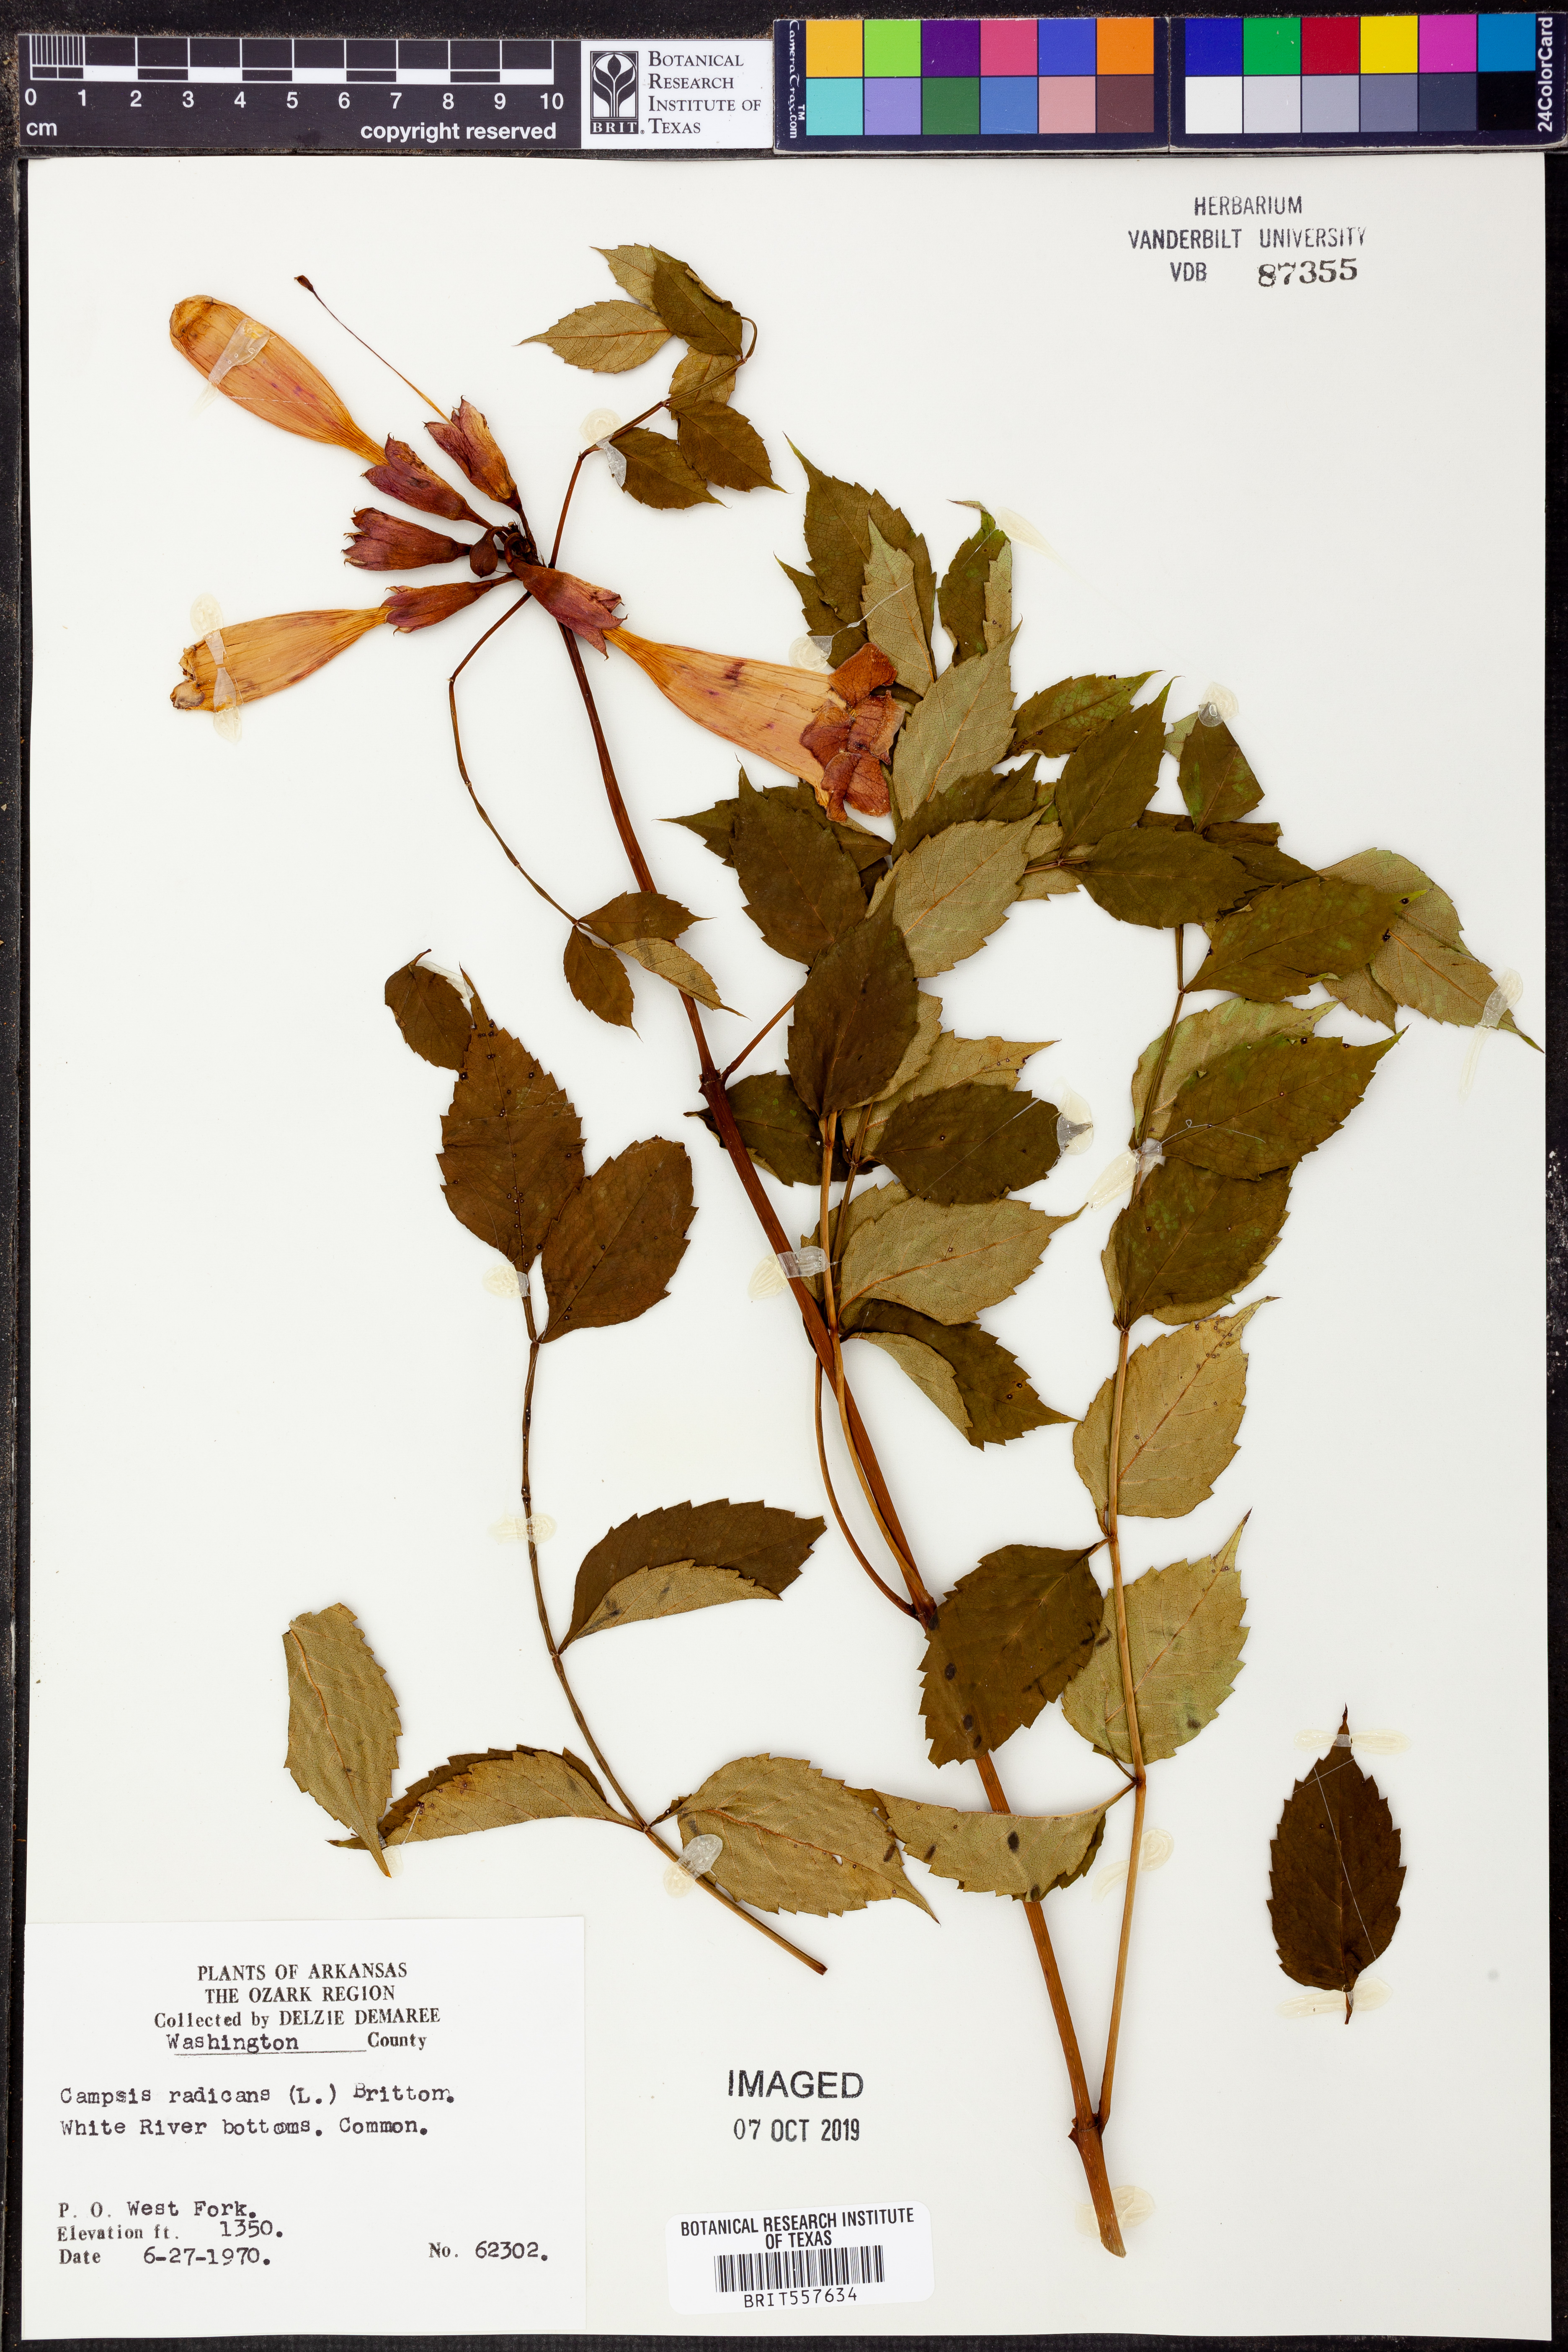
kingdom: Plantae
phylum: Tracheophyta
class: Magnoliopsida
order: Lamiales
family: Bignoniaceae
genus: Campsis
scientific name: Campsis radicans
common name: Trumpet-creeper
